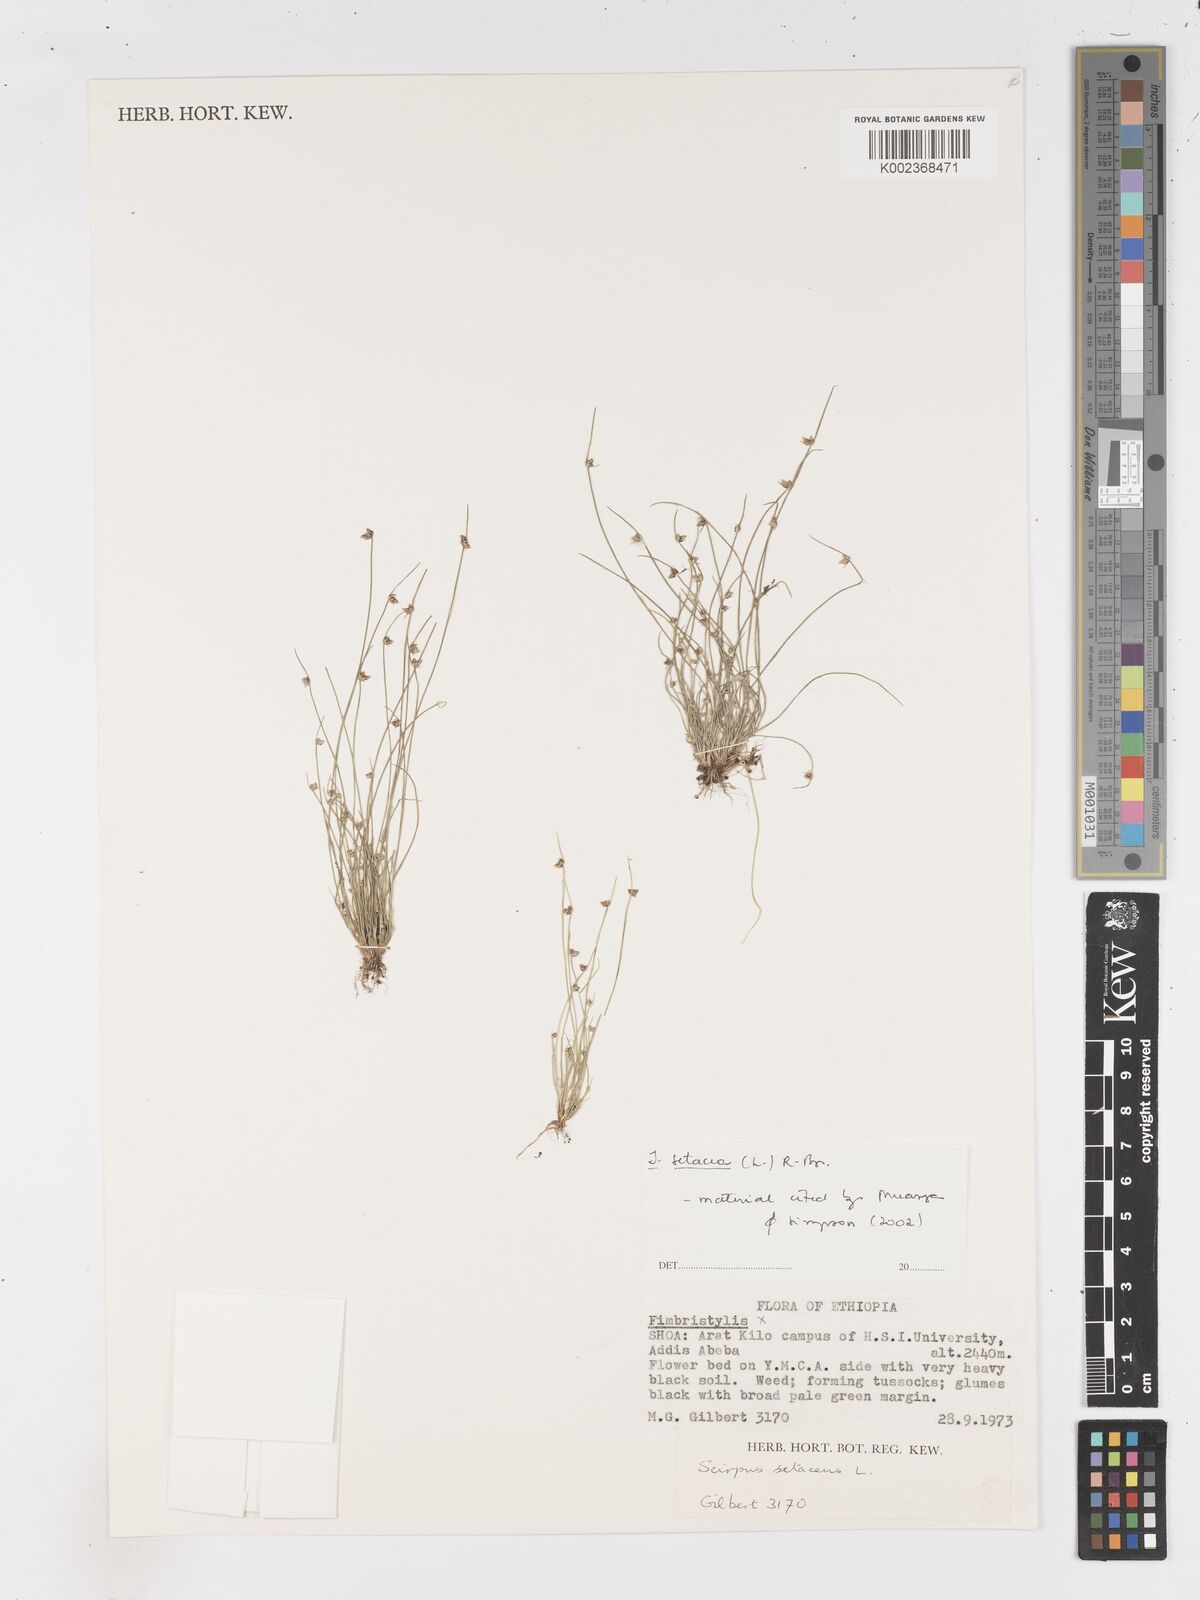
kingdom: Plantae
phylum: Tracheophyta
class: Liliopsida
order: Poales
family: Cyperaceae
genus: Isolepis
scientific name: Isolepis setacea
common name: Bristle club-rush
